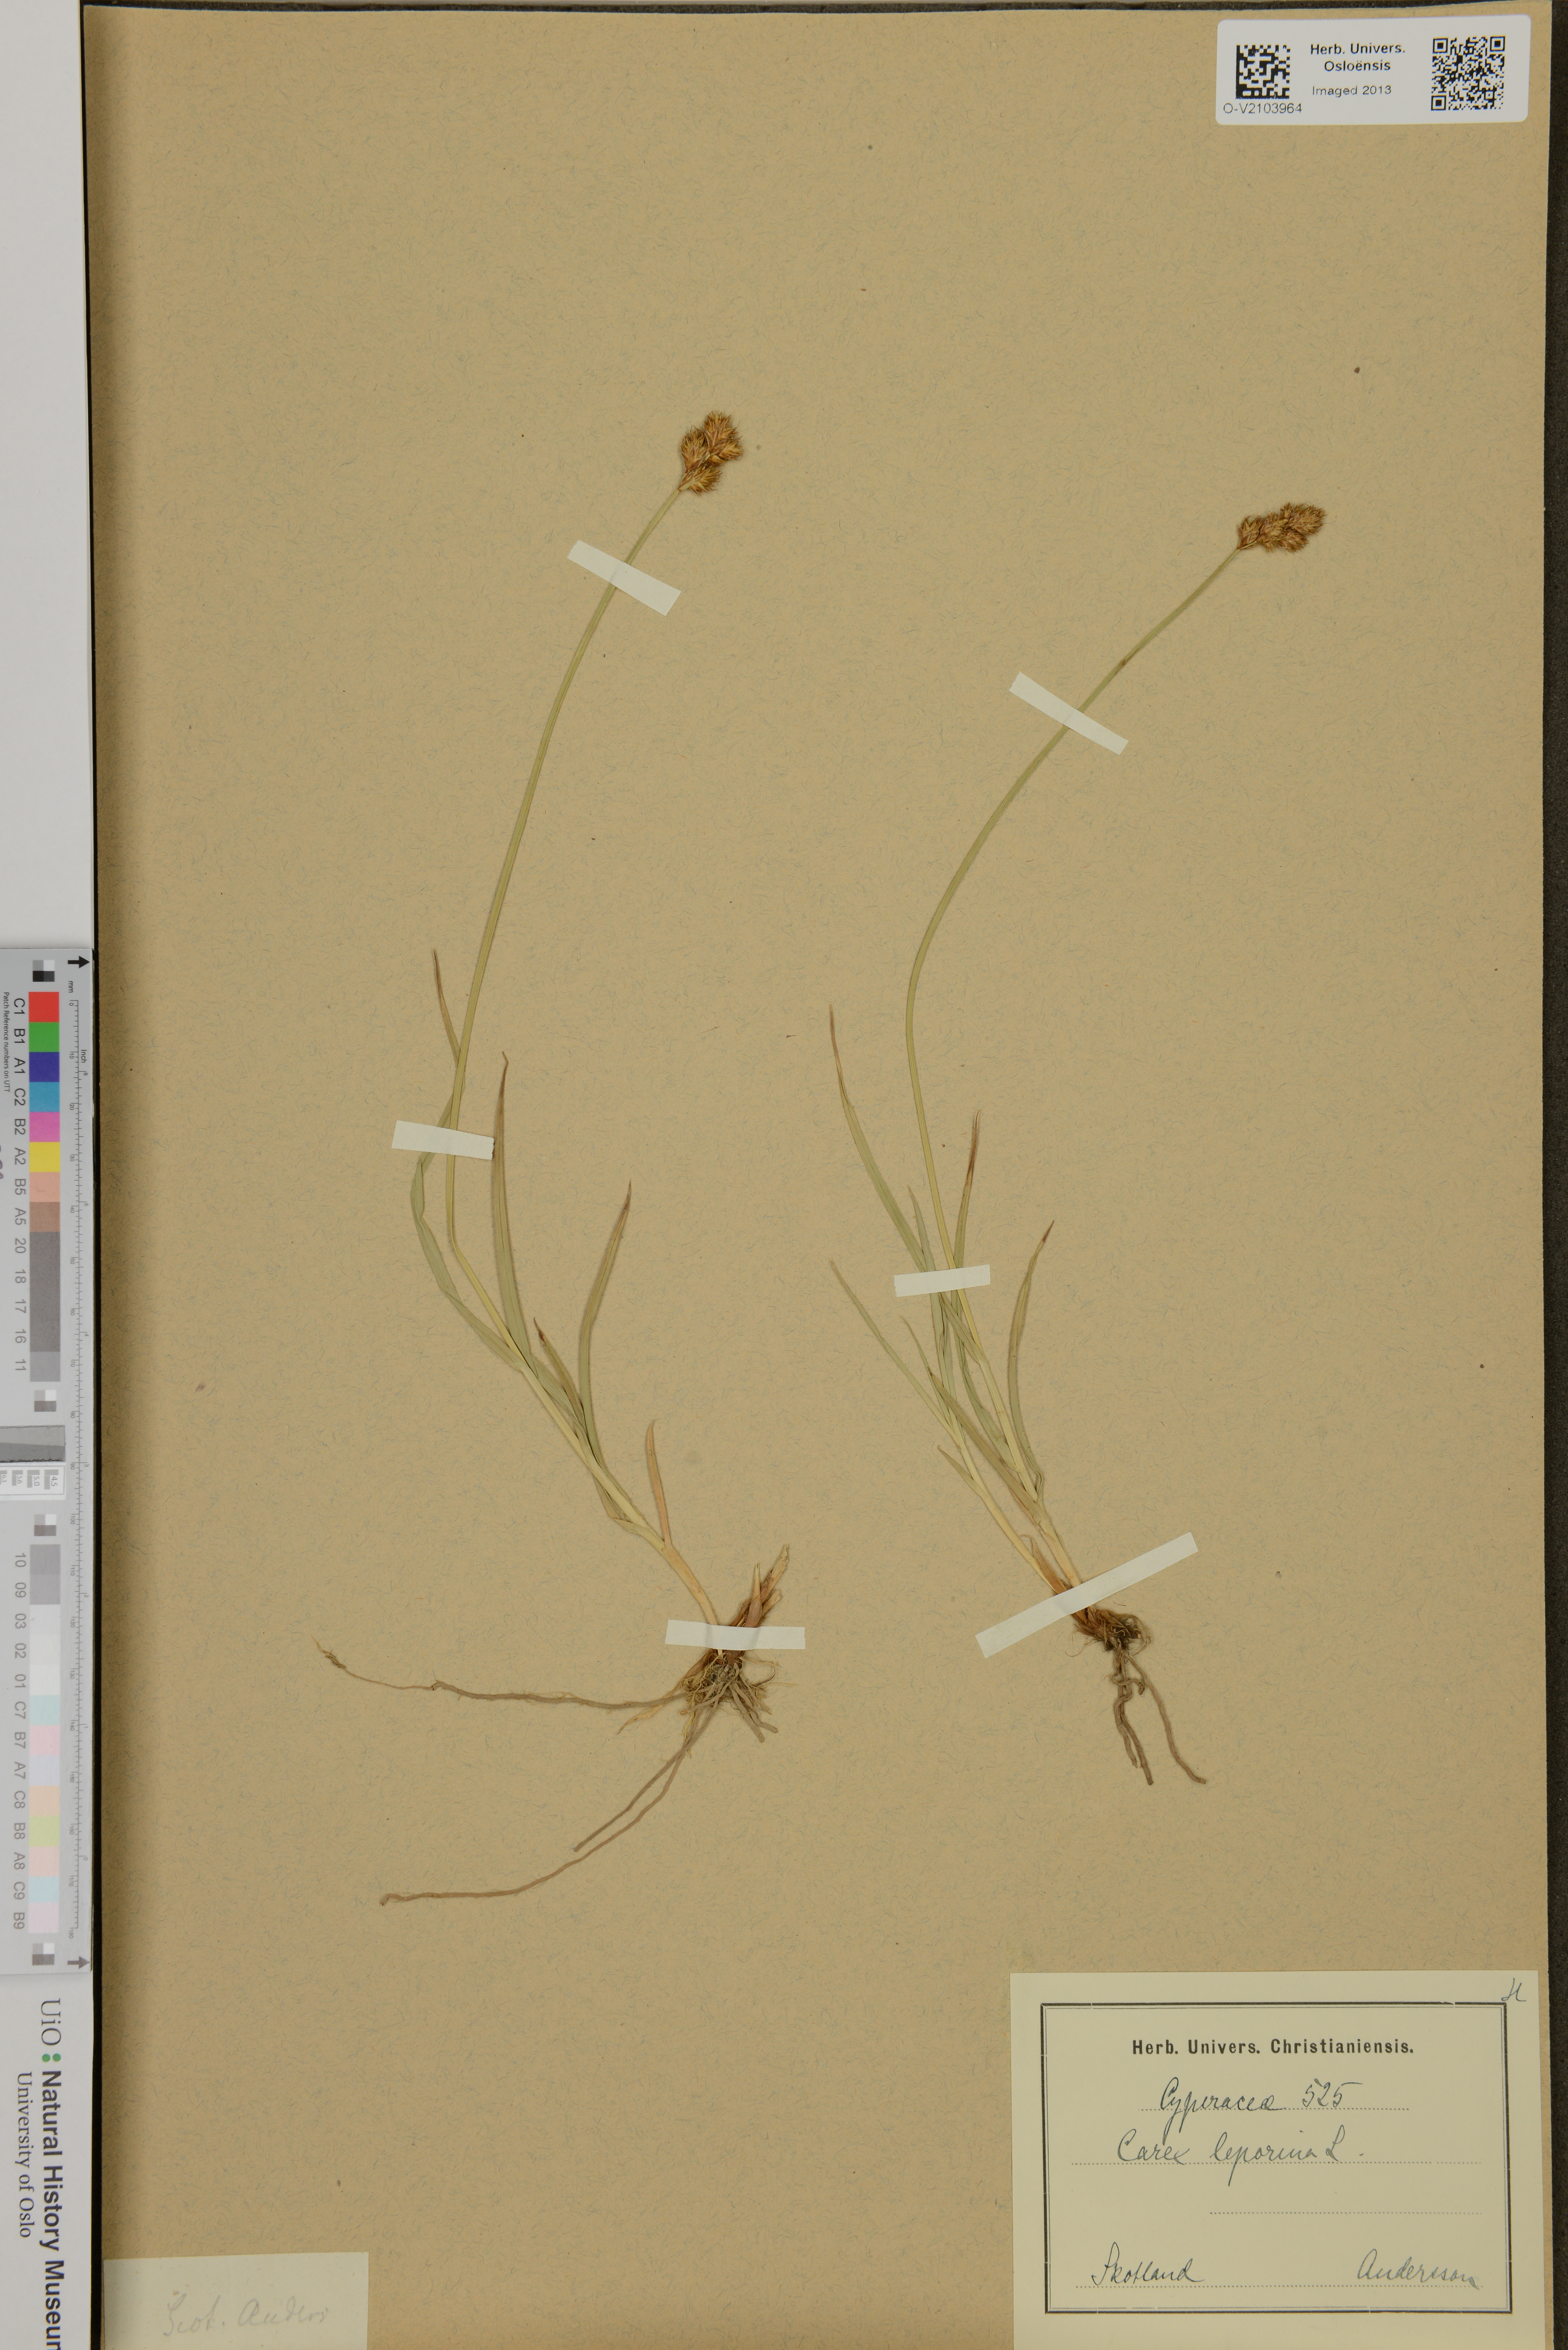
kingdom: Plantae
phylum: Tracheophyta
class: Liliopsida
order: Poales
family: Cyperaceae
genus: Carex
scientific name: Carex leporina
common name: Oval sedge
